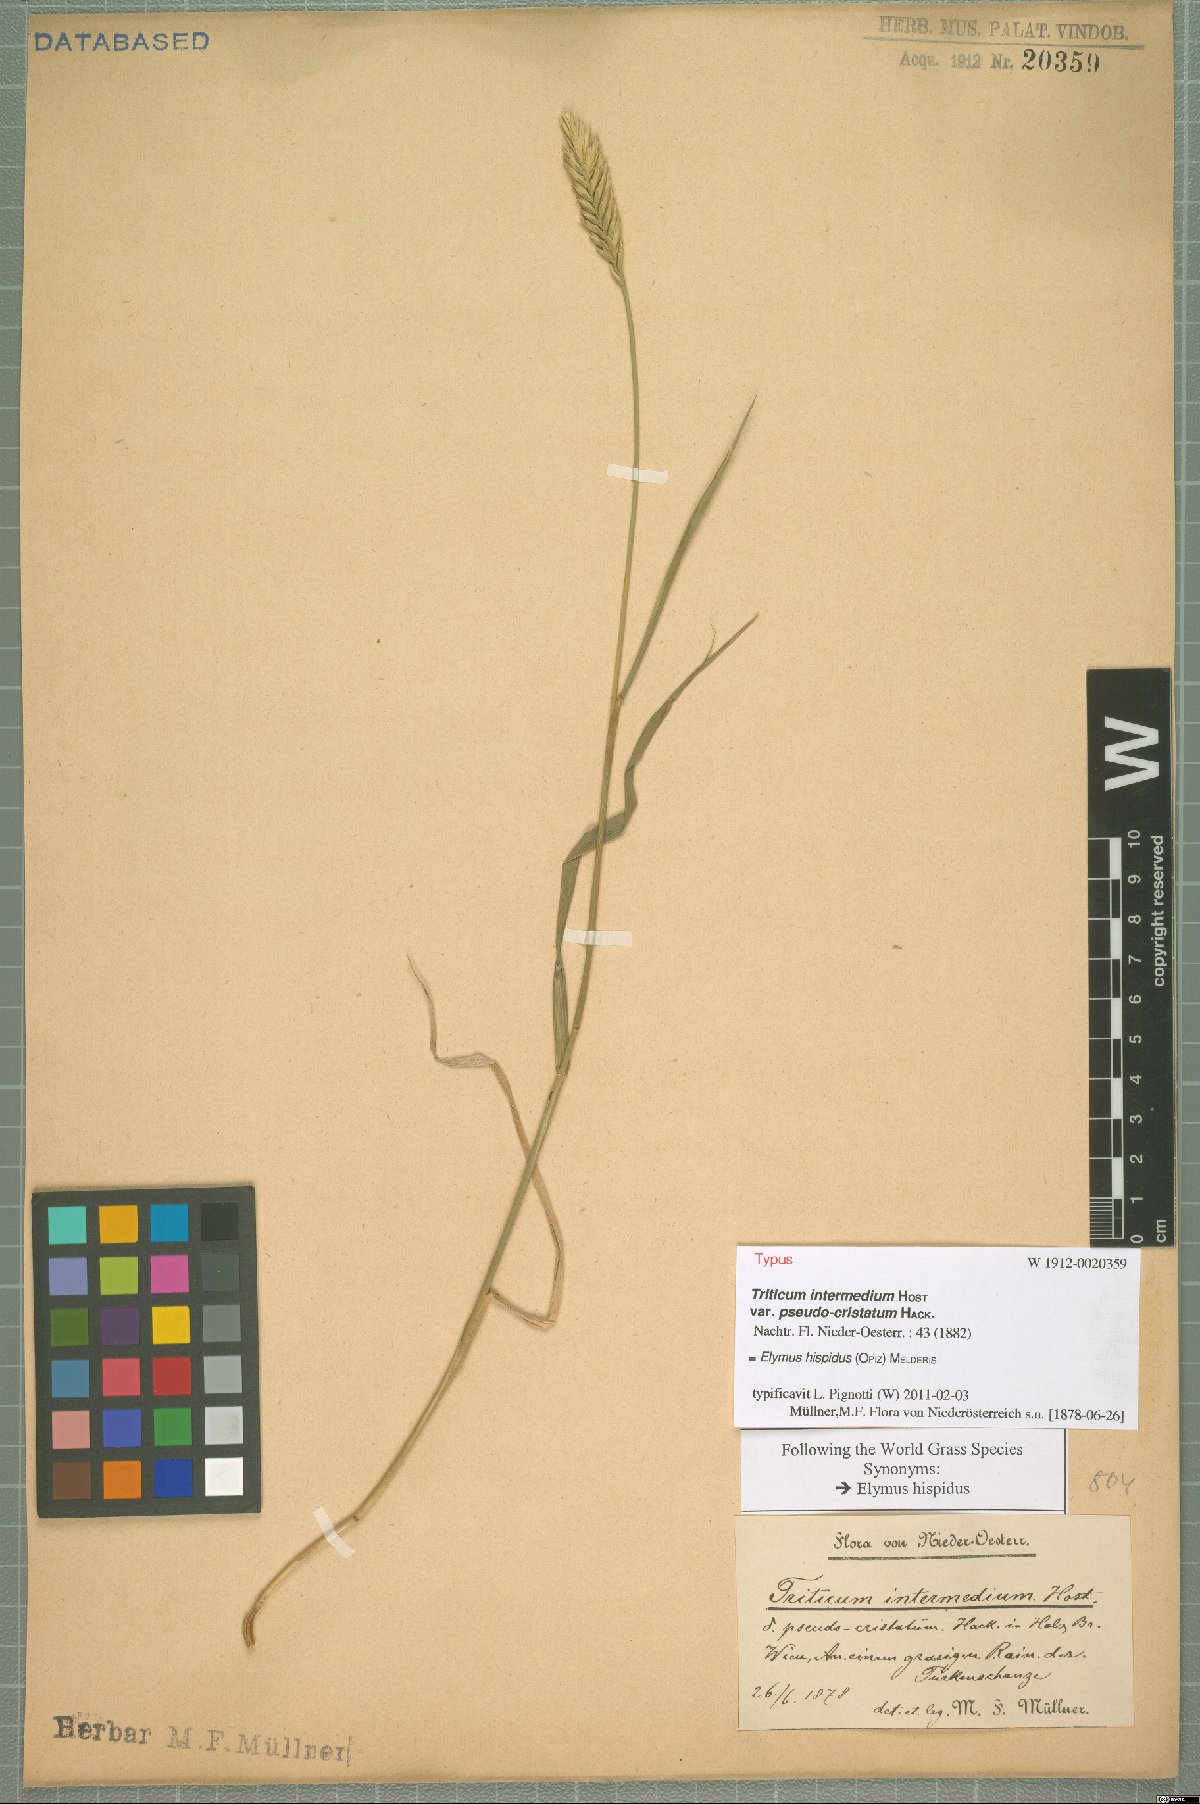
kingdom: Plantae
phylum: Tracheophyta
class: Liliopsida
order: Poales
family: Poaceae
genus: Thinopyrum
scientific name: Thinopyrum intermedium
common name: Intermediate wheatgrass
